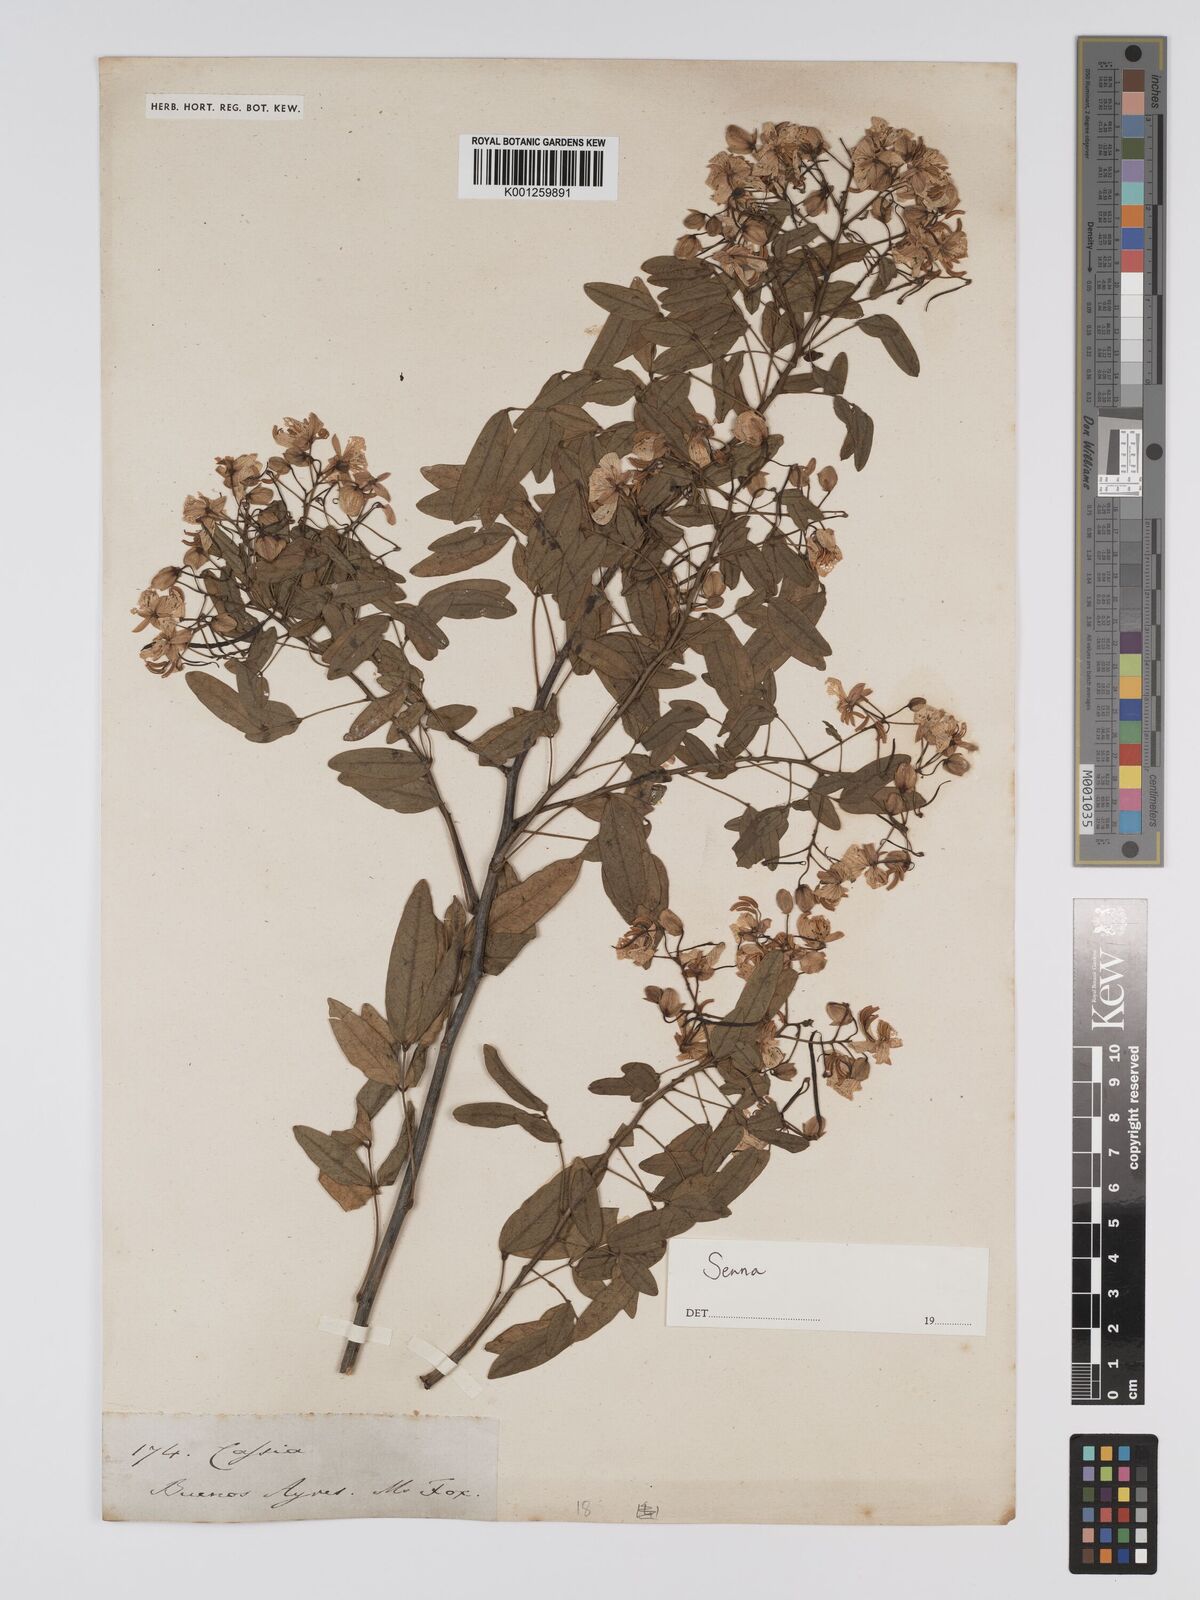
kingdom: Plantae
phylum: Tracheophyta
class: Magnoliopsida
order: Fabales
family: Fabaceae
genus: Senna
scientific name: Senna
